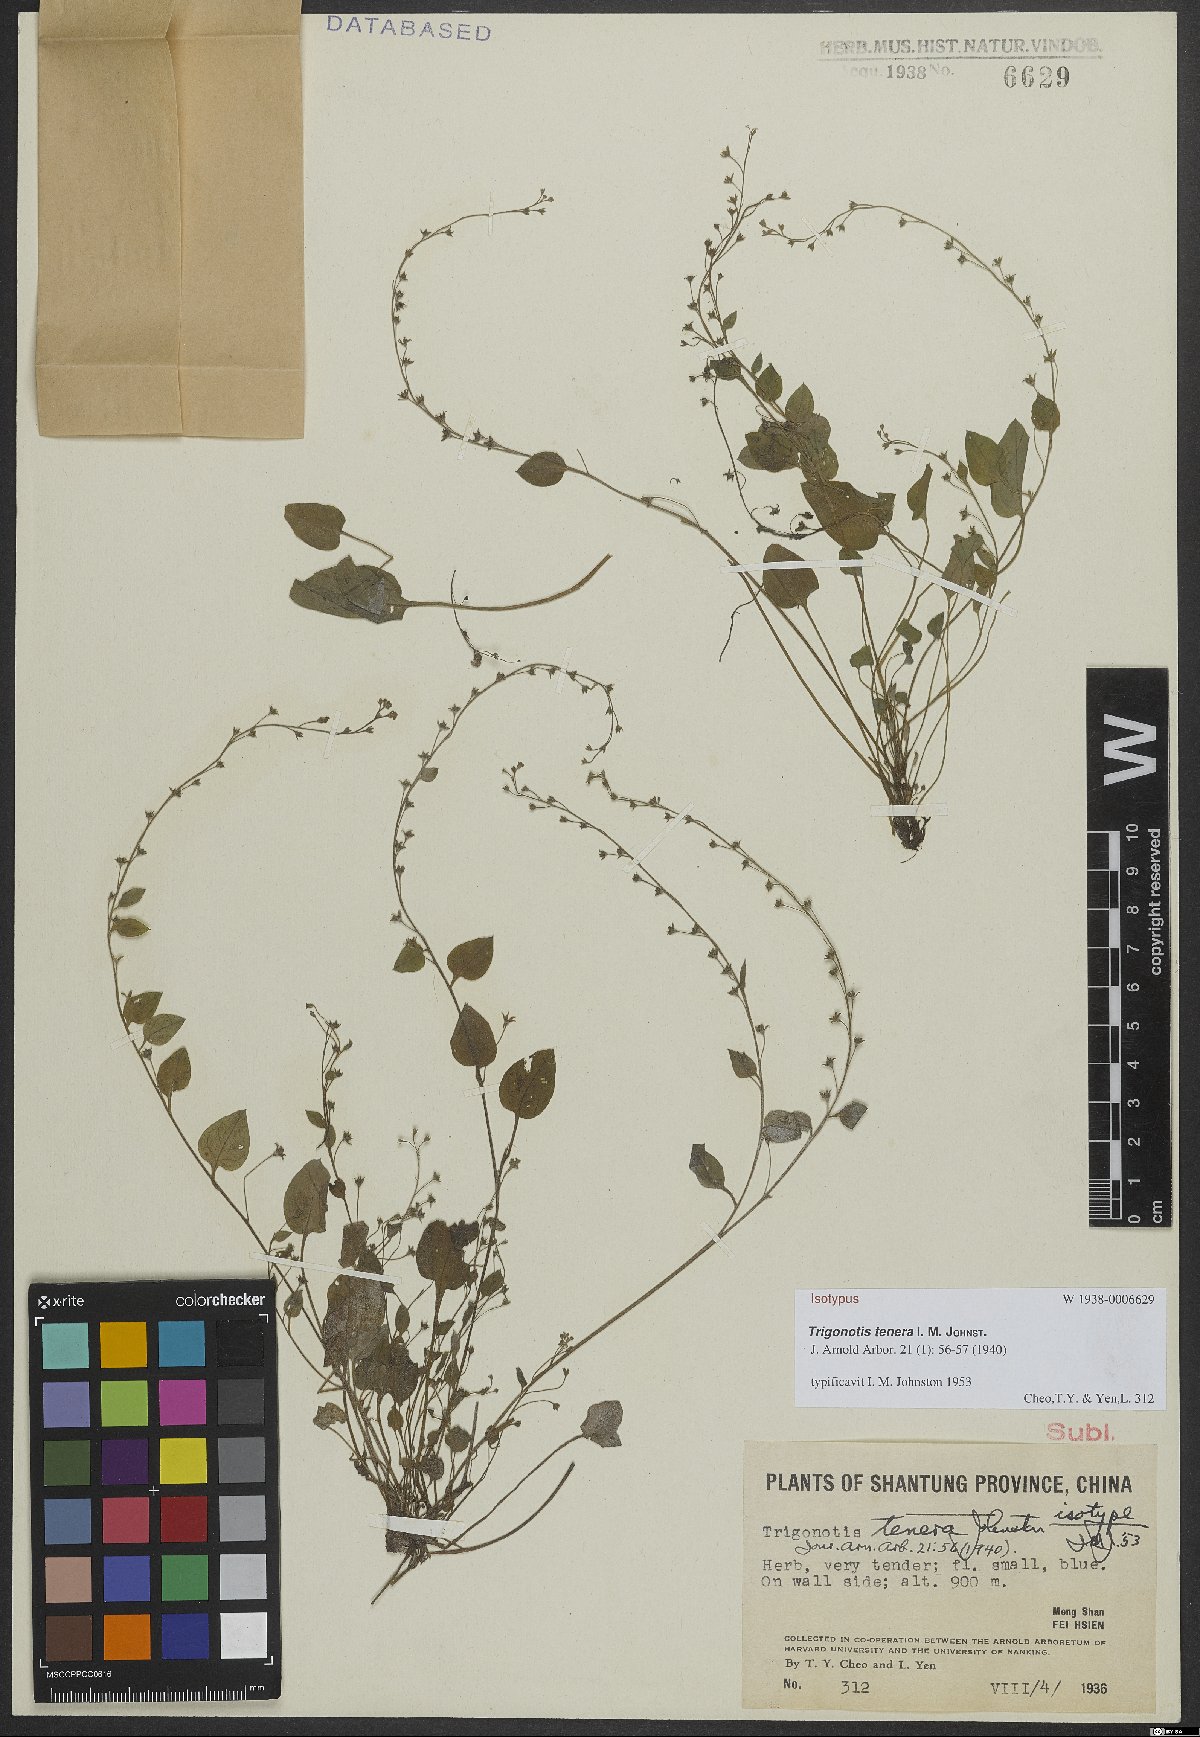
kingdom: Plantae
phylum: Tracheophyta
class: Magnoliopsida
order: Boraginales
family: Boraginaceae
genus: Trigonotis
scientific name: Trigonotis tenera
